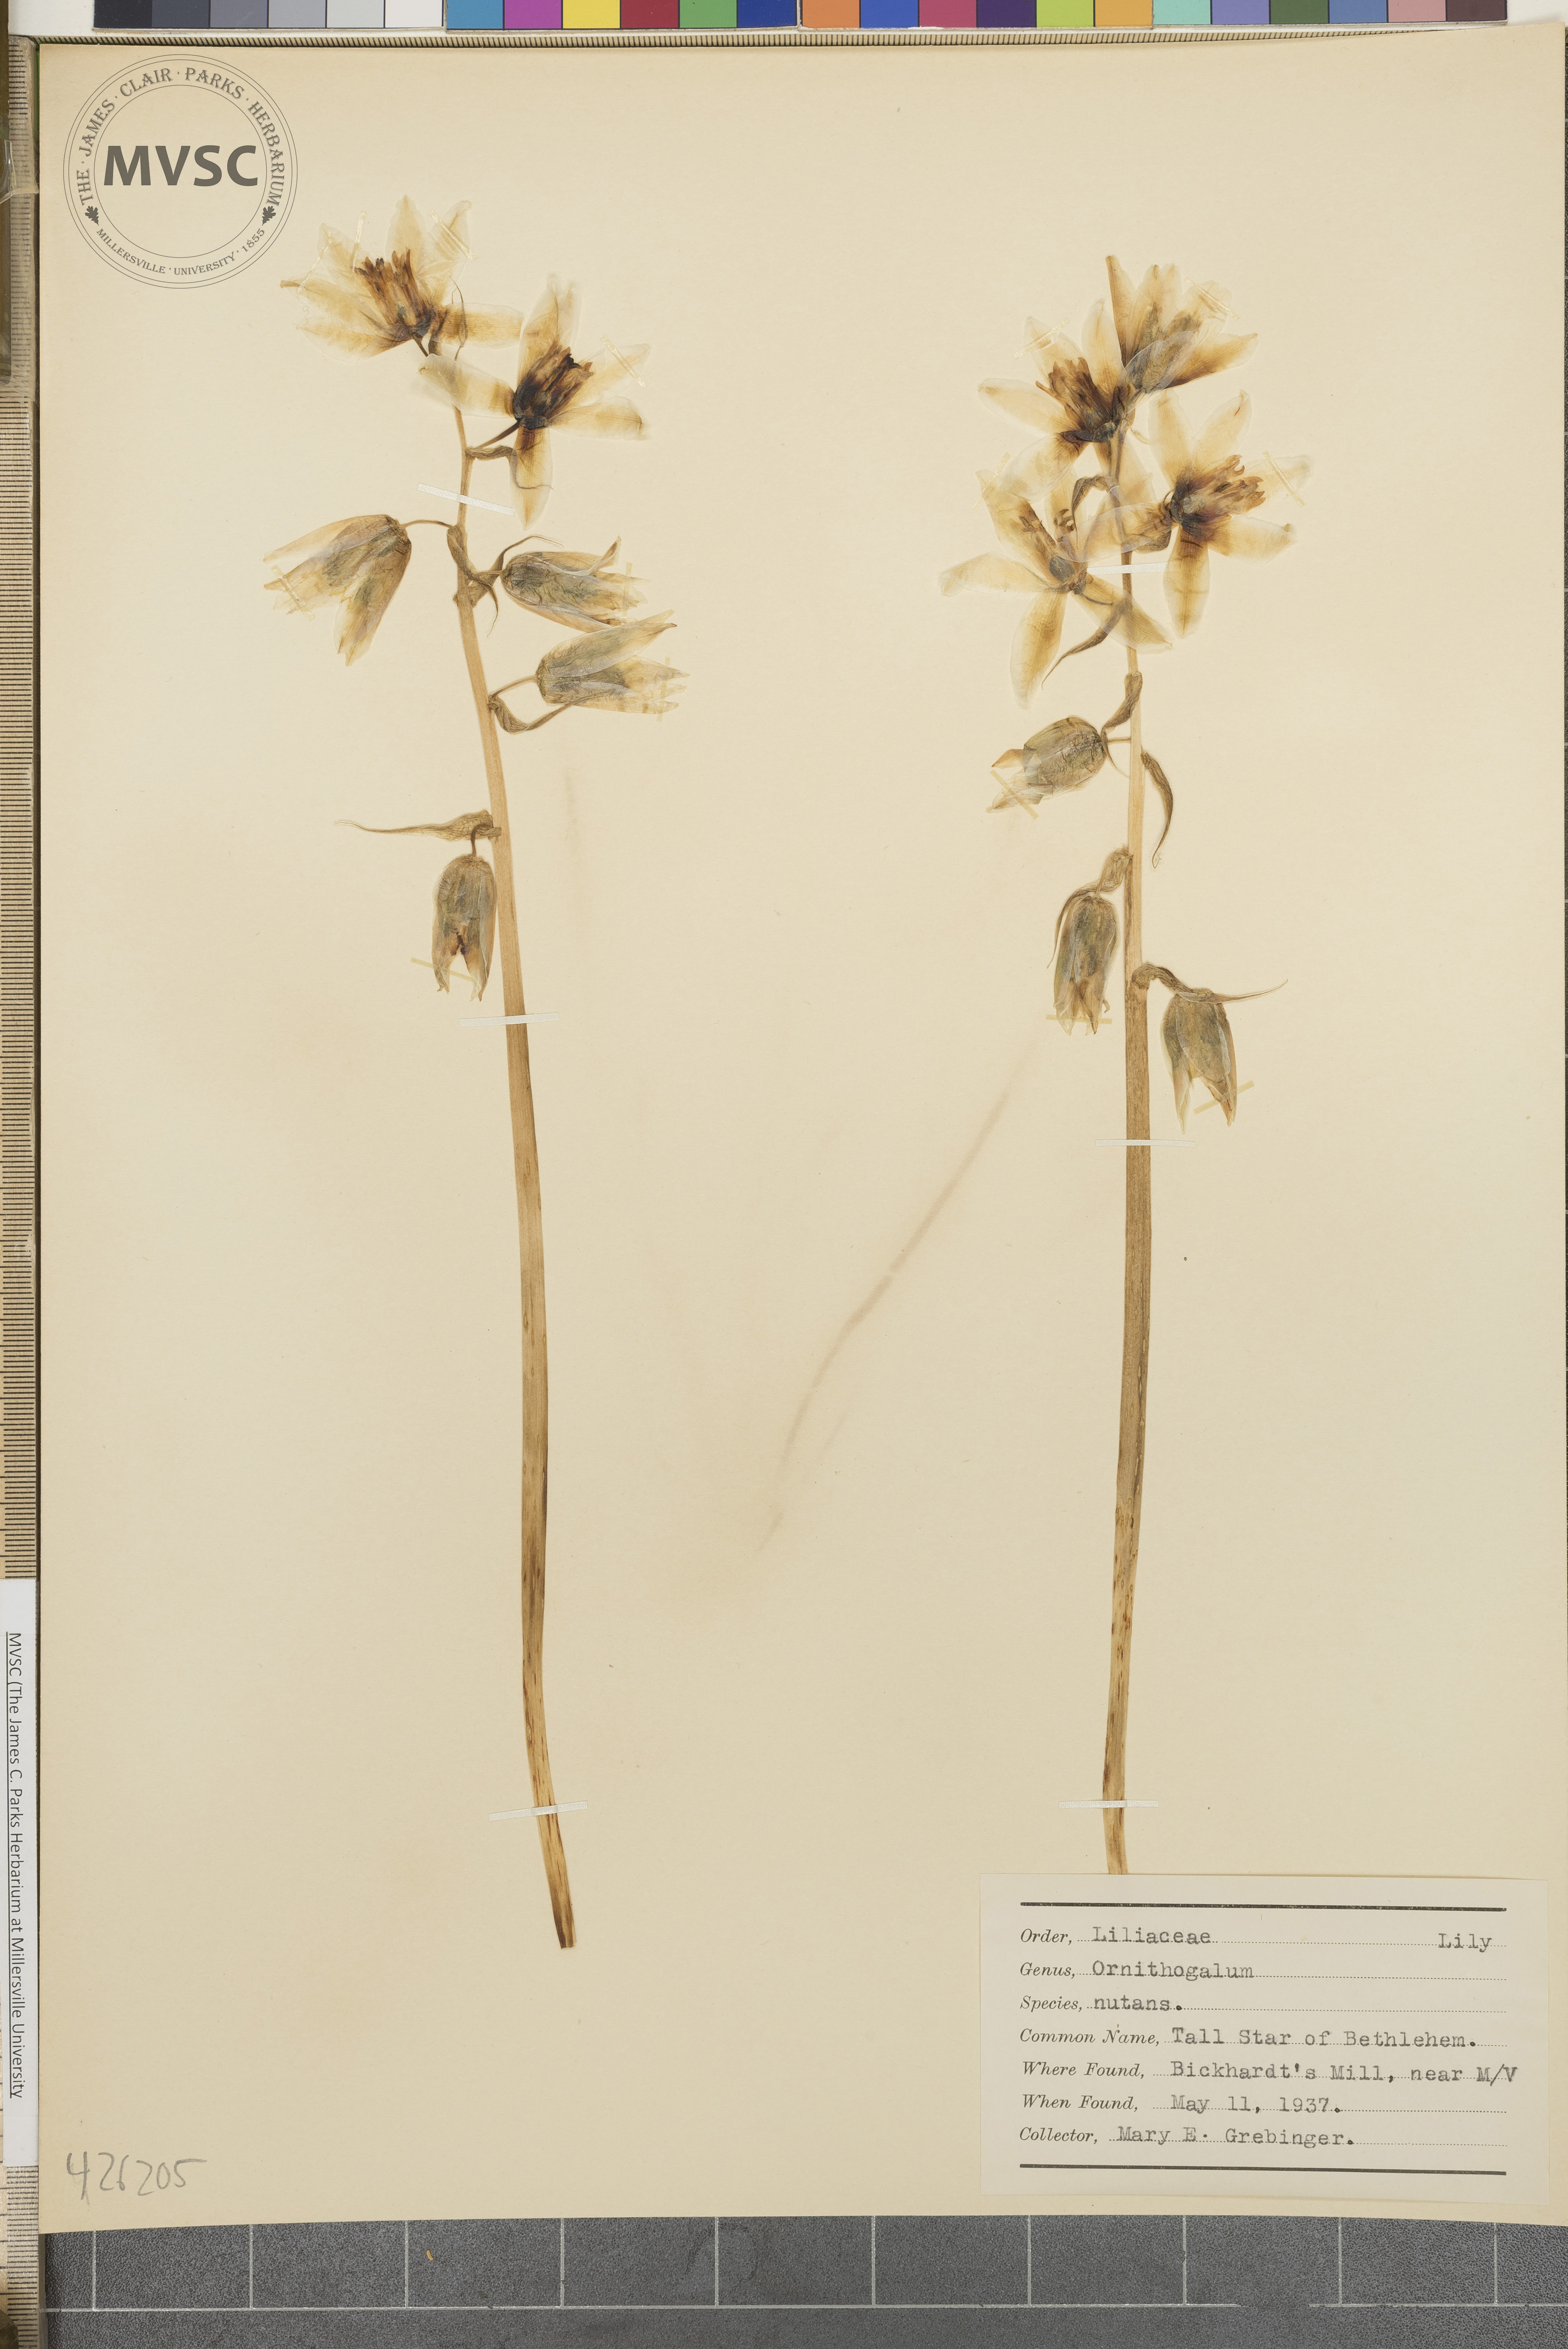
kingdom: Plantae
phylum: Tracheophyta
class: Liliopsida
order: Asparagales
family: Asparagaceae
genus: Ornithogalum
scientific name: Ornithogalum nutans
